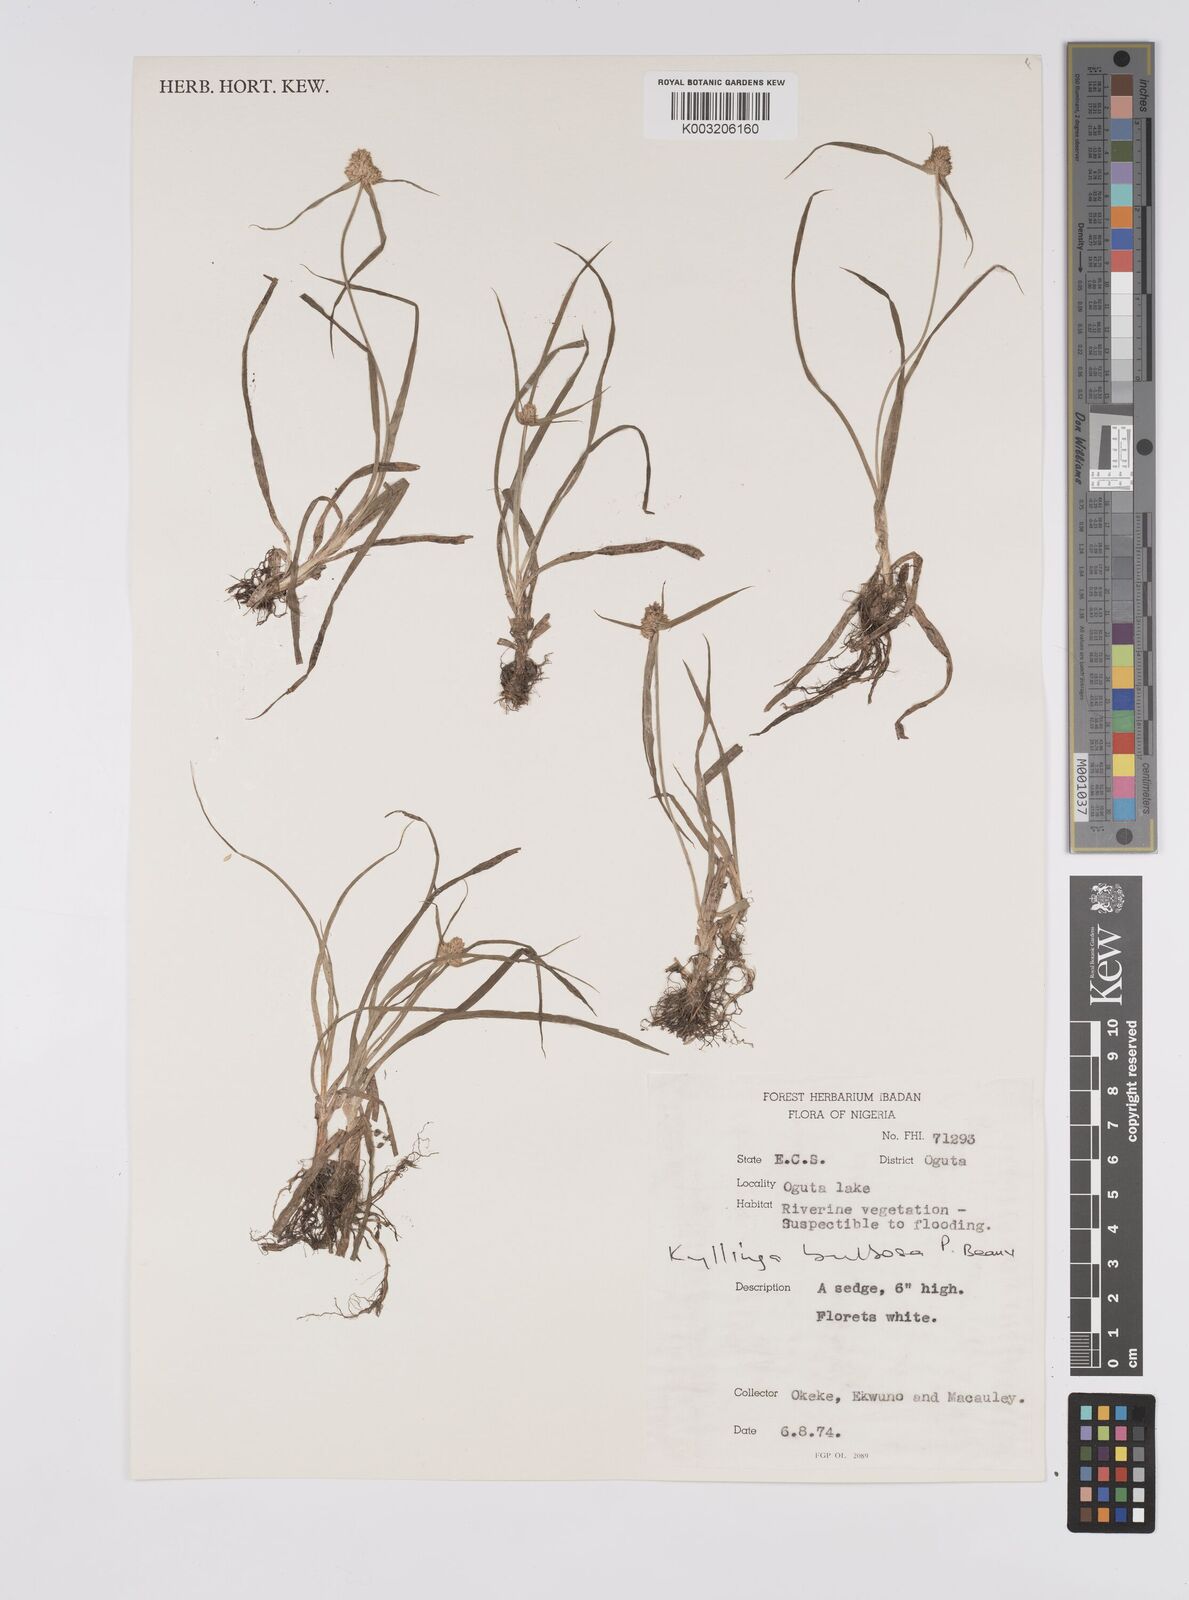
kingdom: Plantae
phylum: Tracheophyta
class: Liliopsida
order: Poales
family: Cyperaceae
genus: Cyperus
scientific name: Cyperus
